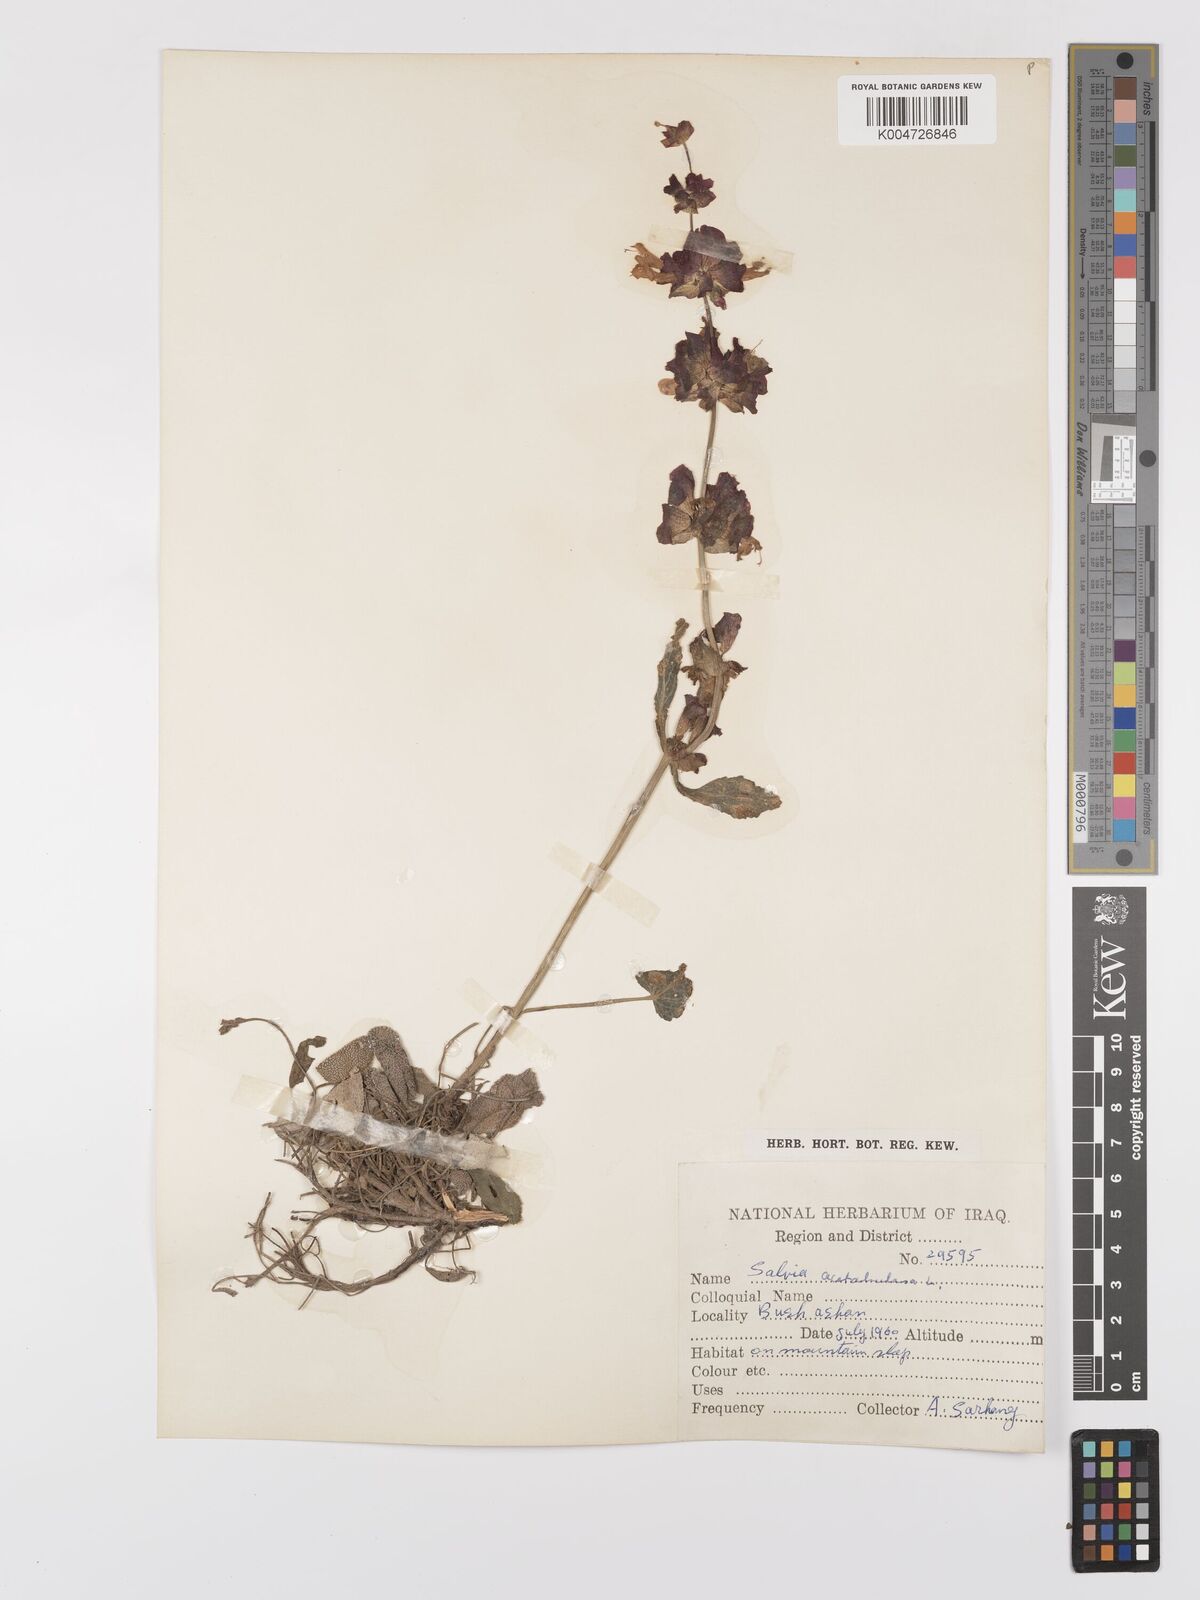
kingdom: Plantae
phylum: Tracheophyta
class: Magnoliopsida
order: Lamiales
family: Lamiaceae
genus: Salvia
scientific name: Salvia
